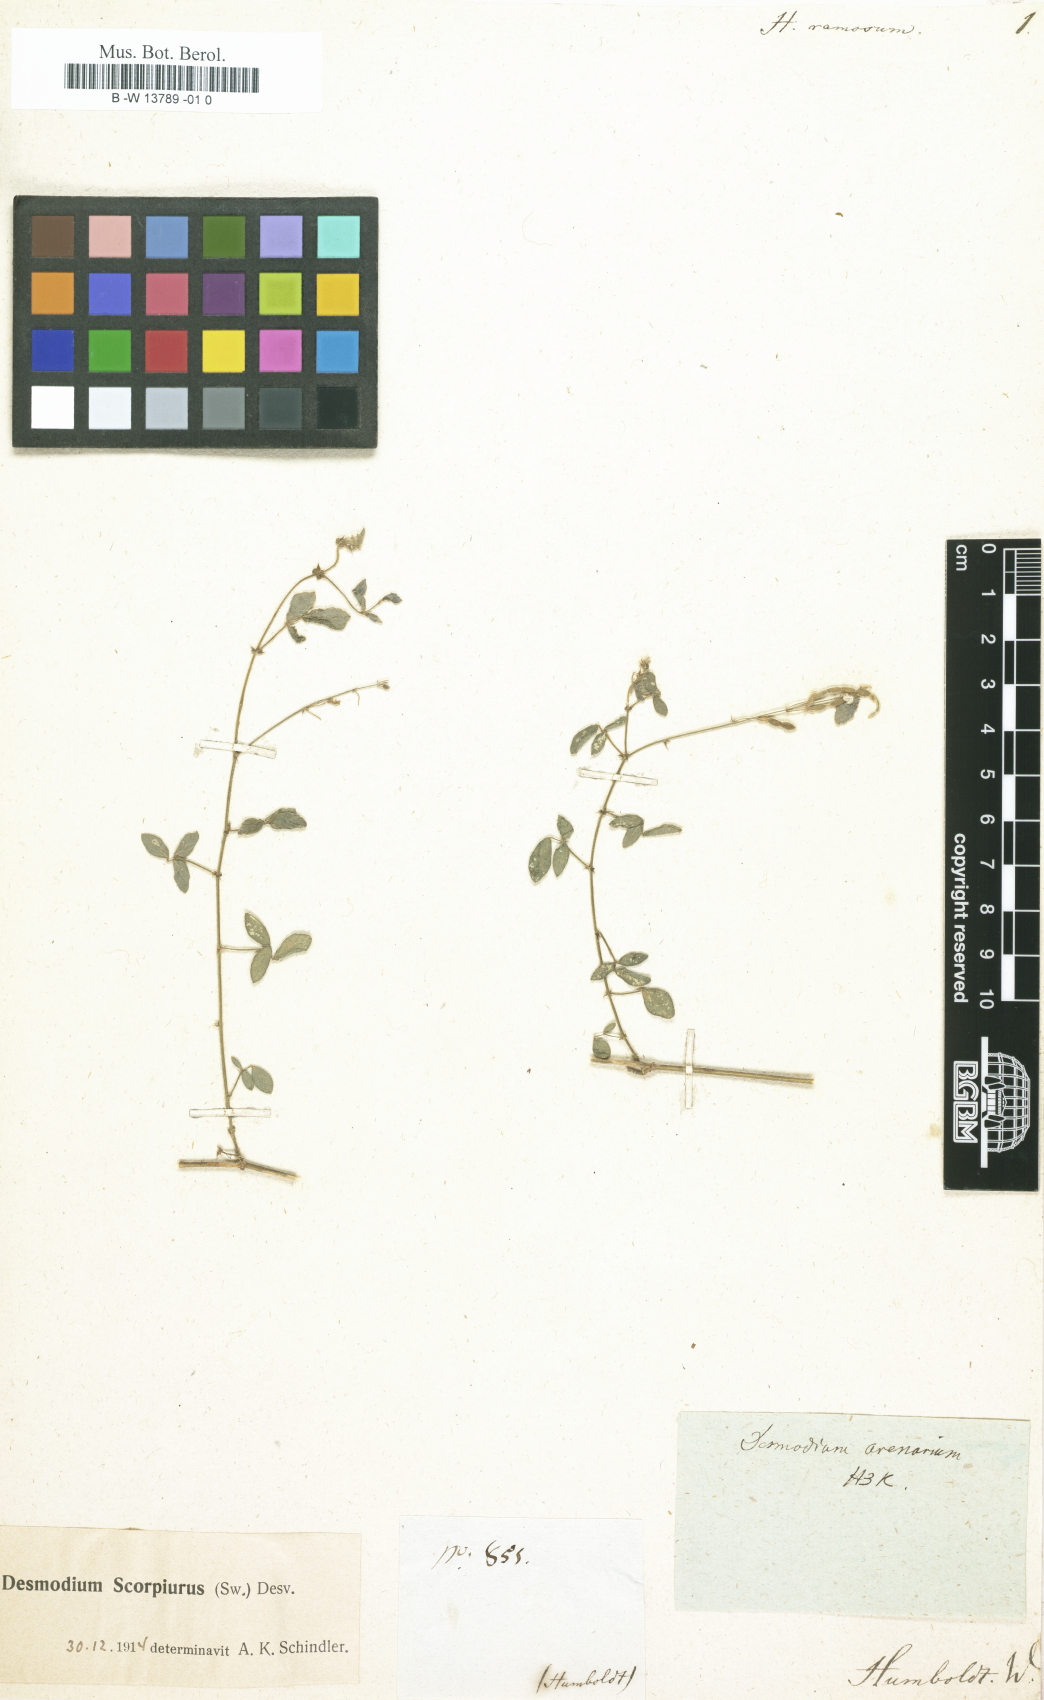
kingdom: Plantae
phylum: Tracheophyta
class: Magnoliopsida
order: Fabales
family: Fabaceae
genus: Desmodium
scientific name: Desmodium scorpiurus
